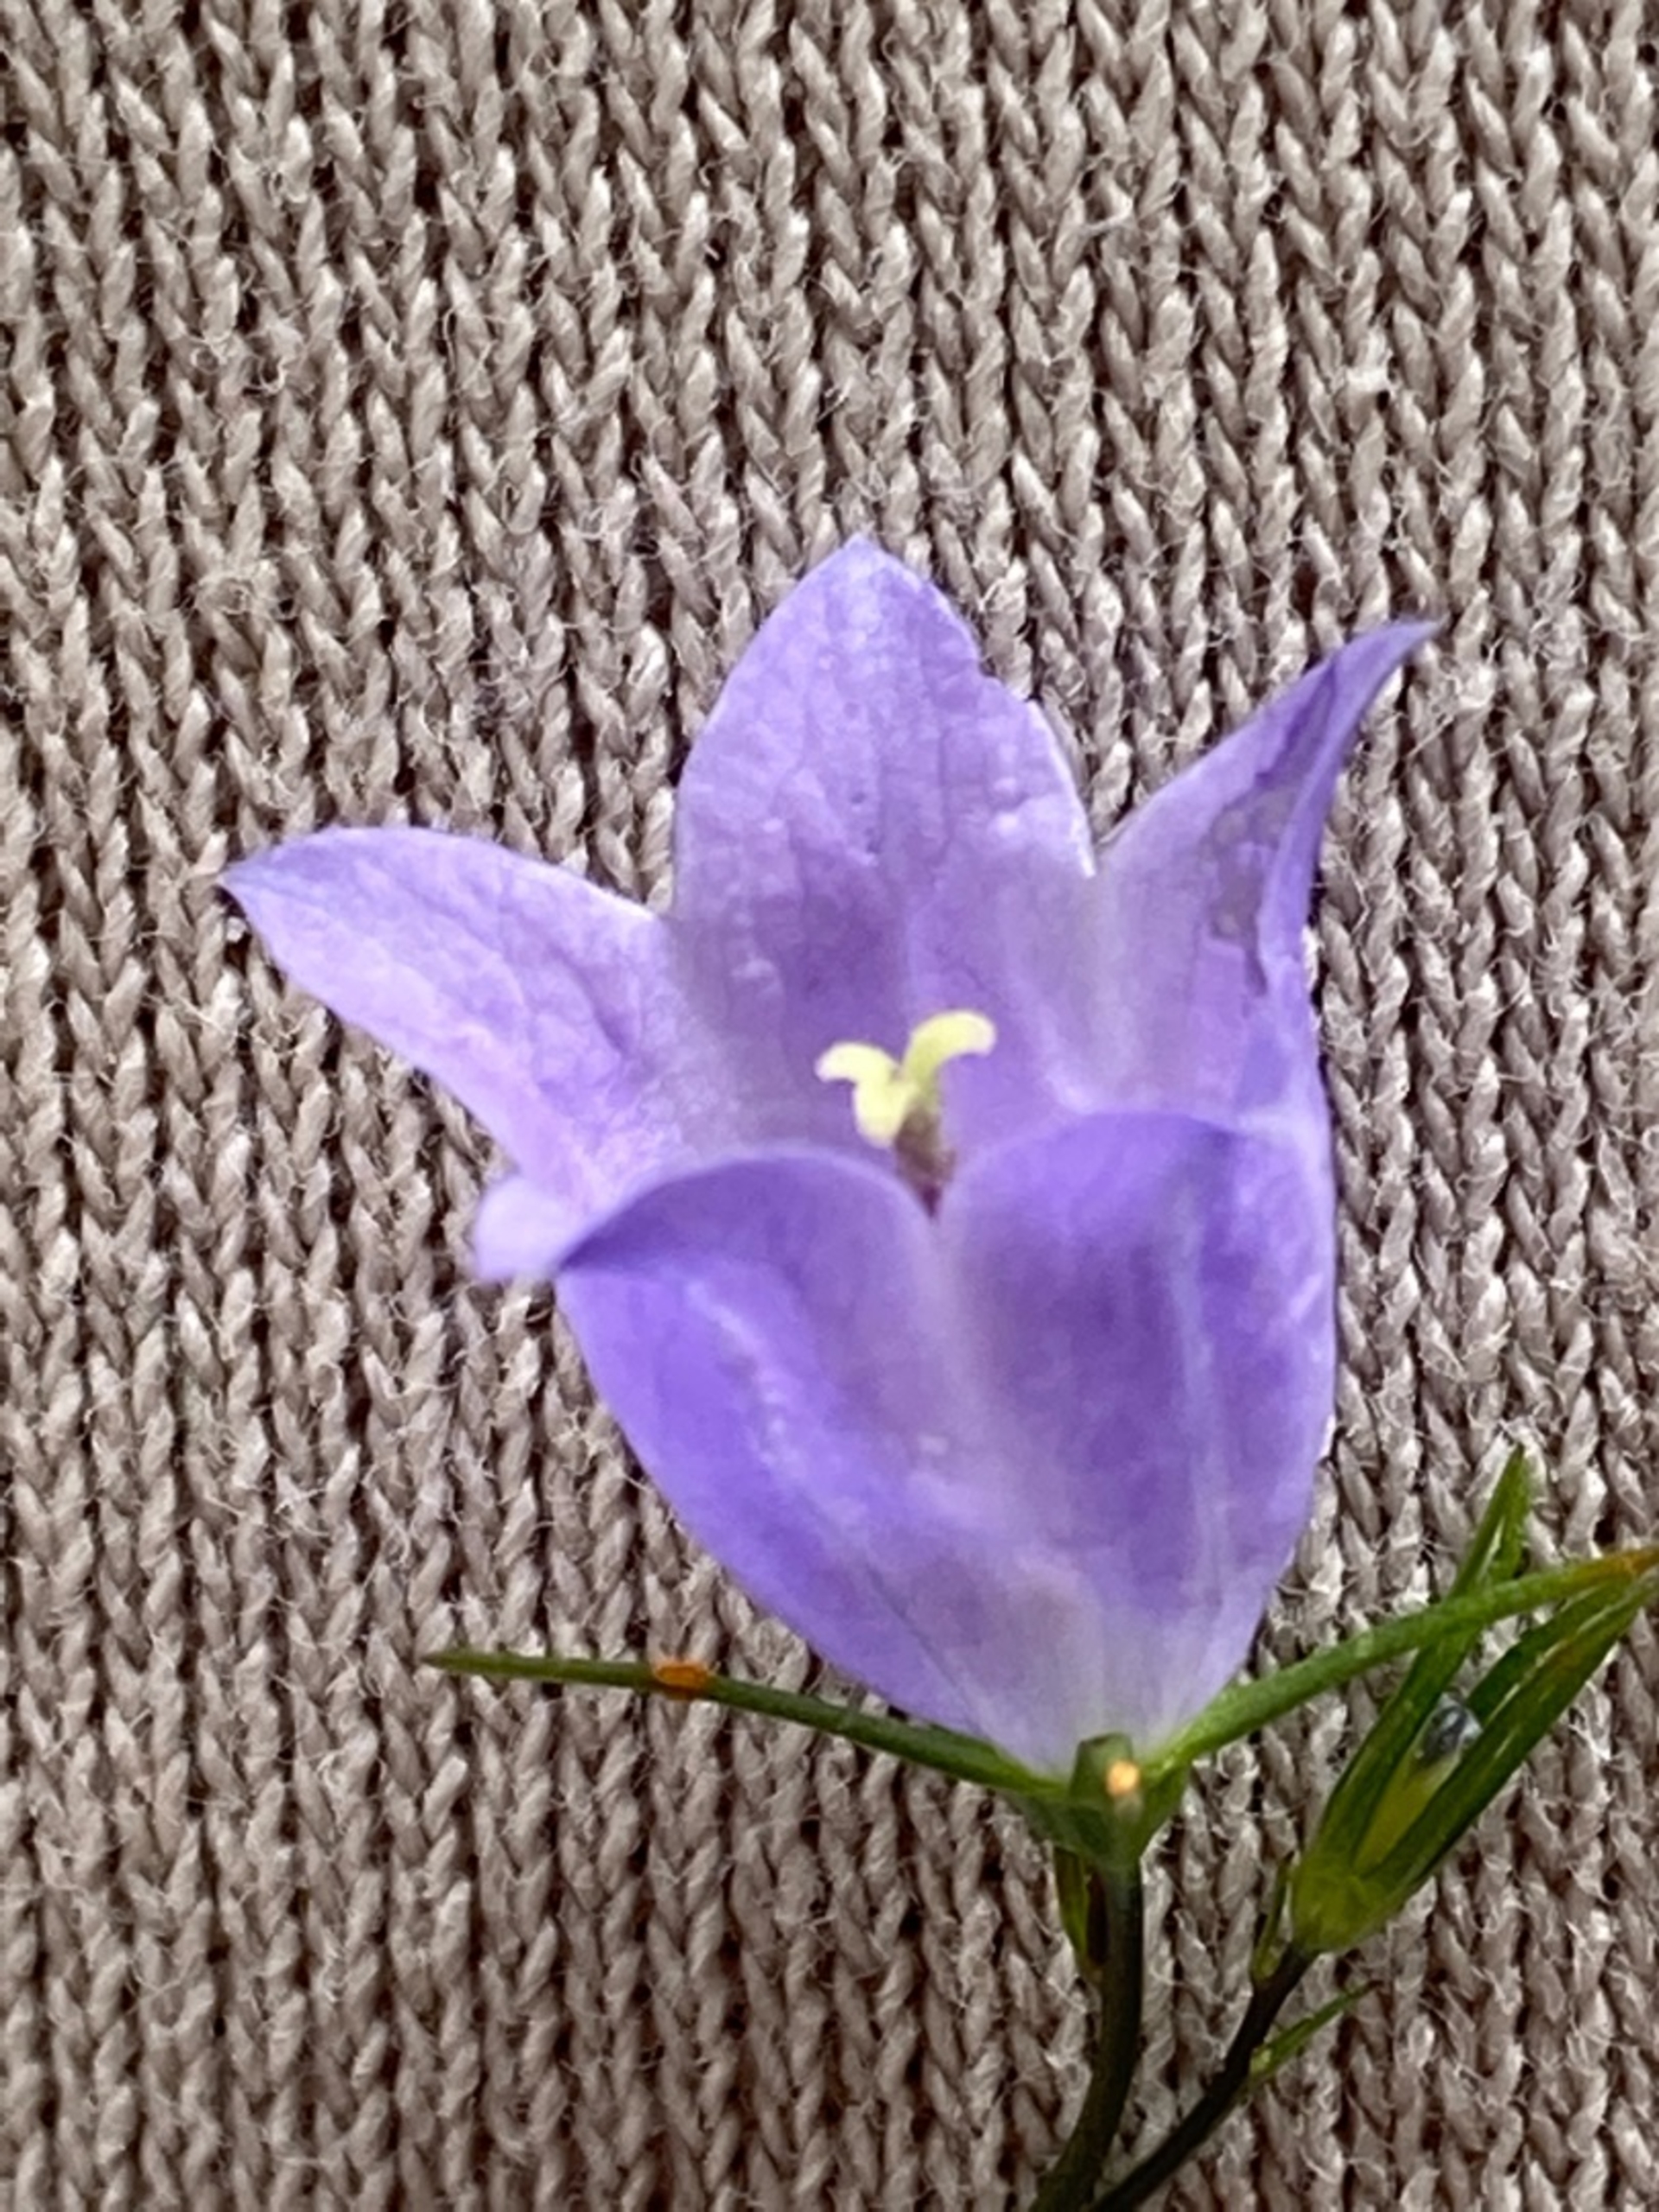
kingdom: Plantae
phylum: Tracheophyta
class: Magnoliopsida
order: Asterales
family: Campanulaceae
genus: Campanula
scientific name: Campanula rotundifolia
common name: Liden klokke
